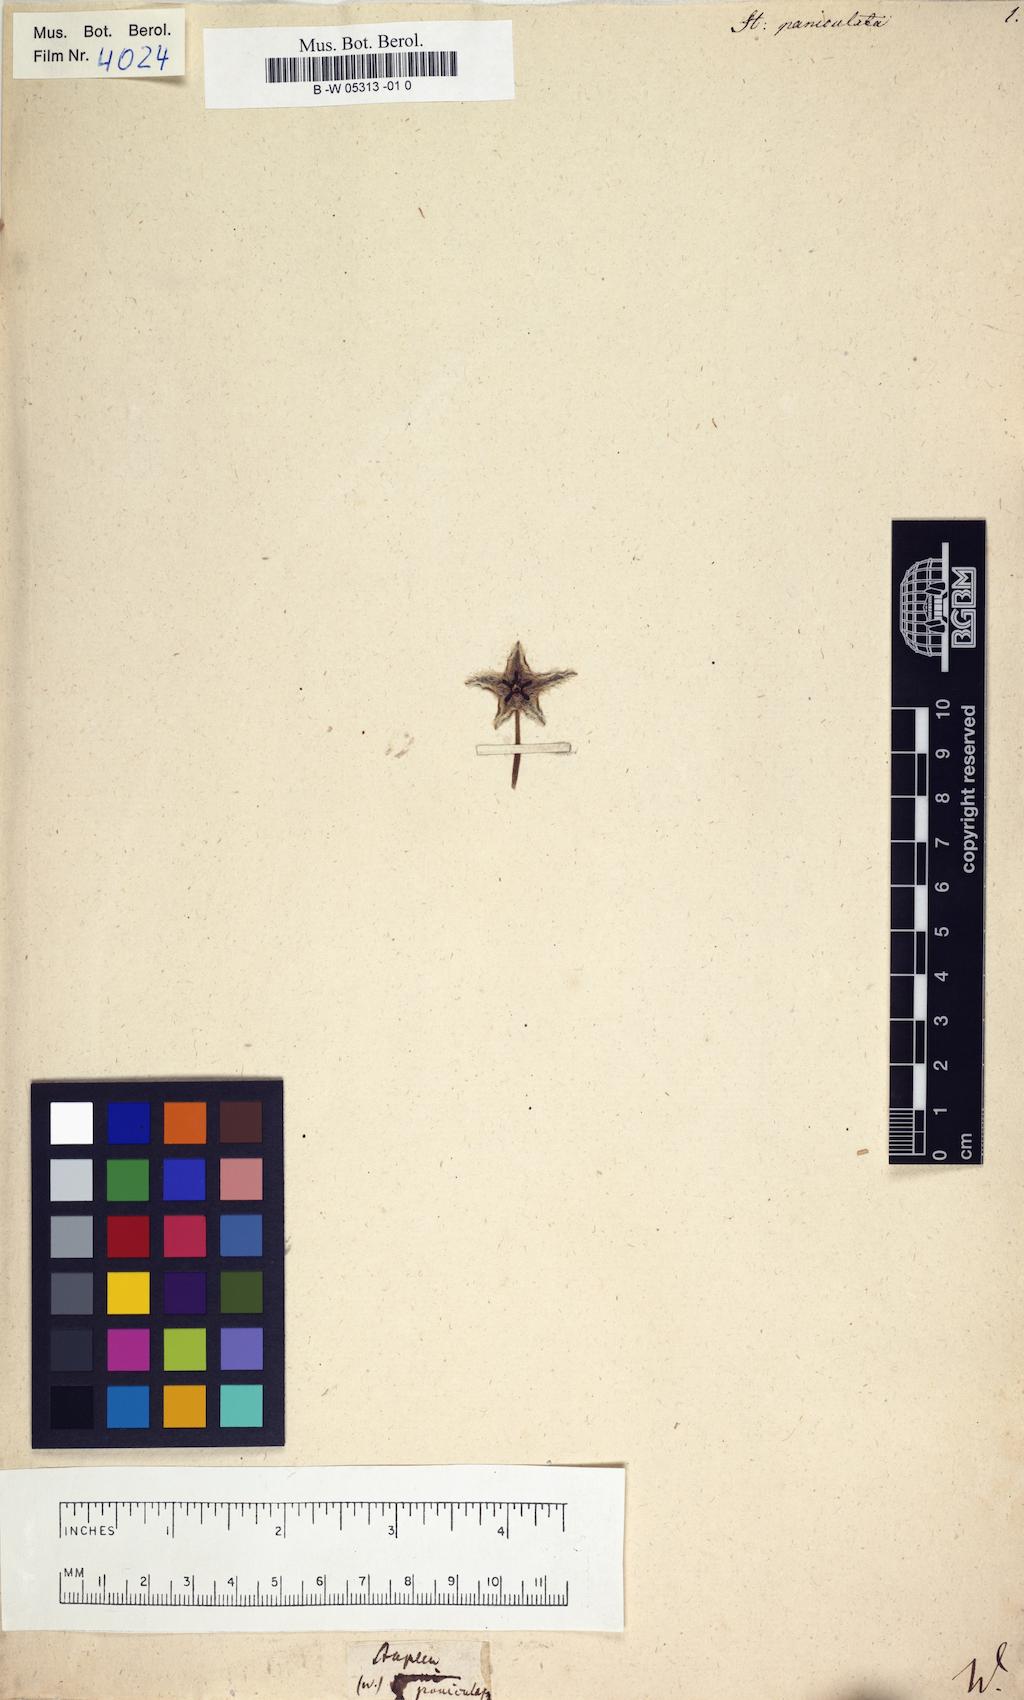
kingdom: Plantae
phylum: Tracheophyta
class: Magnoliopsida
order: Gentianales
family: Apocynaceae
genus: Ceropegia
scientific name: Ceropegia paniculata
